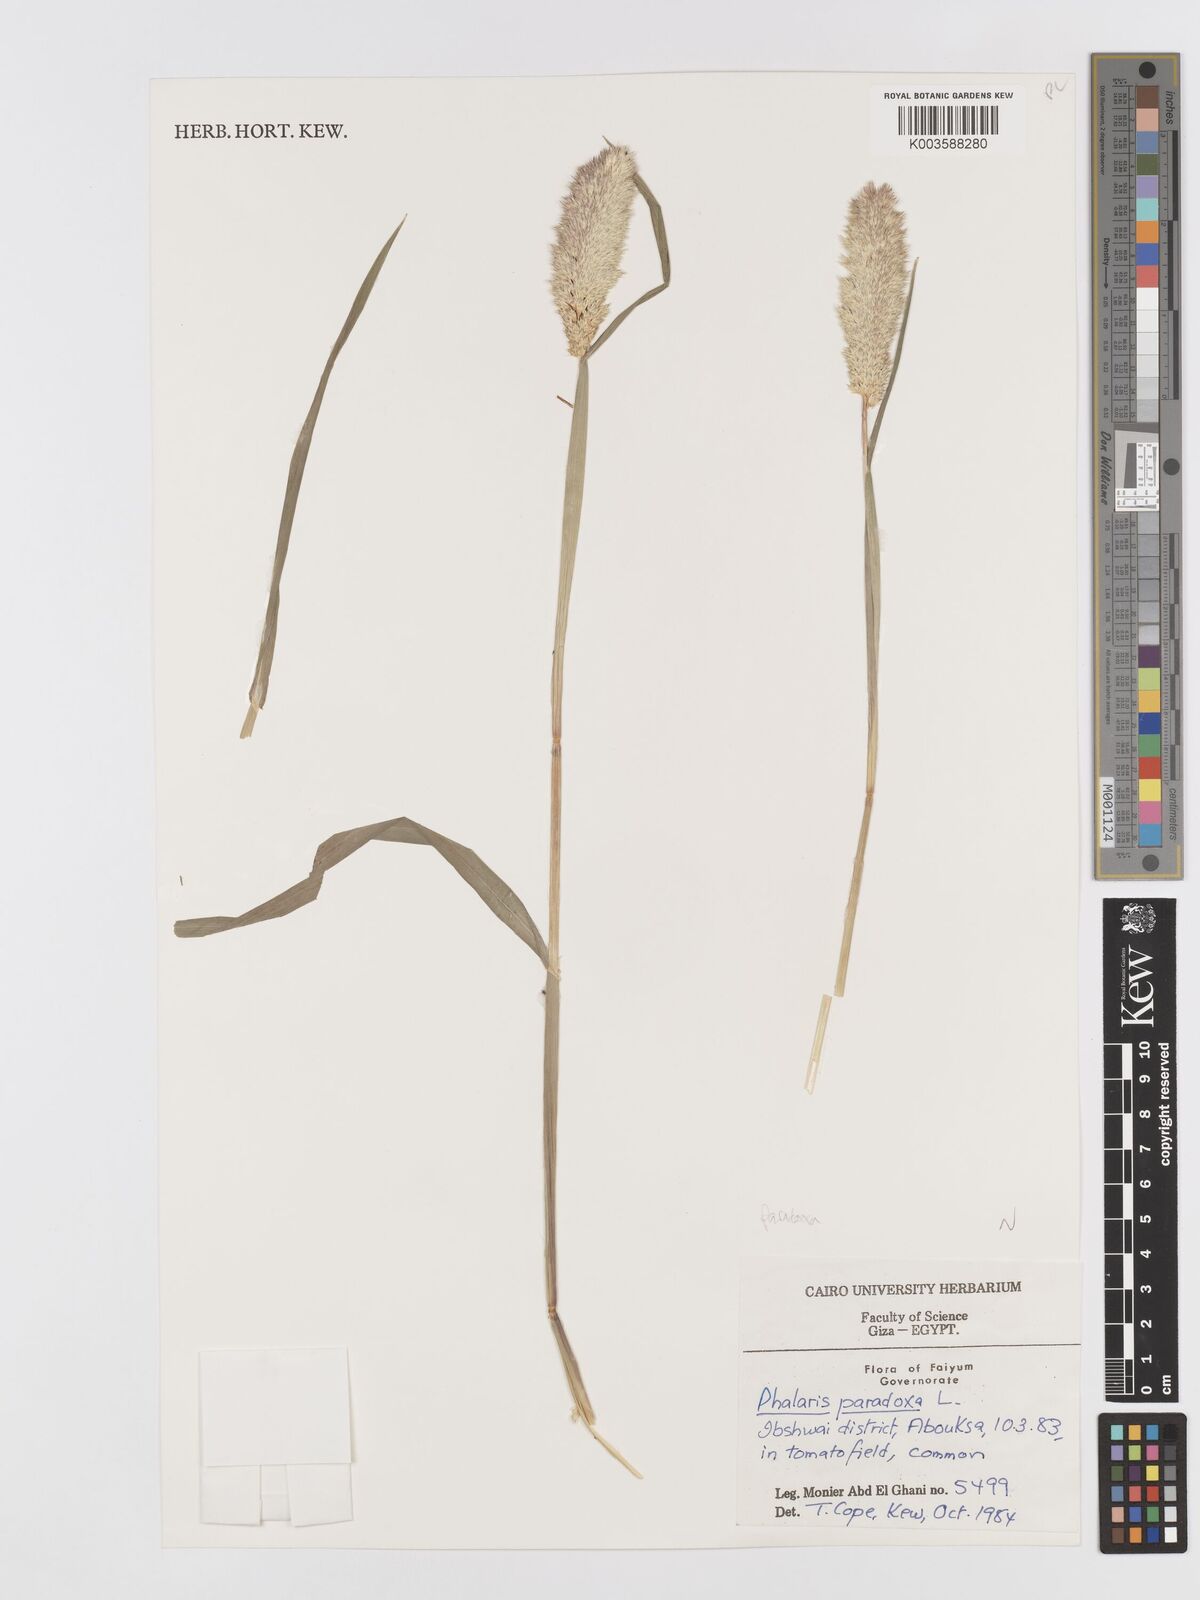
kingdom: Plantae
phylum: Tracheophyta
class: Liliopsida
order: Poales
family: Poaceae
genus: Phalaris
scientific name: Phalaris paradoxa
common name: Awned canary-grass
